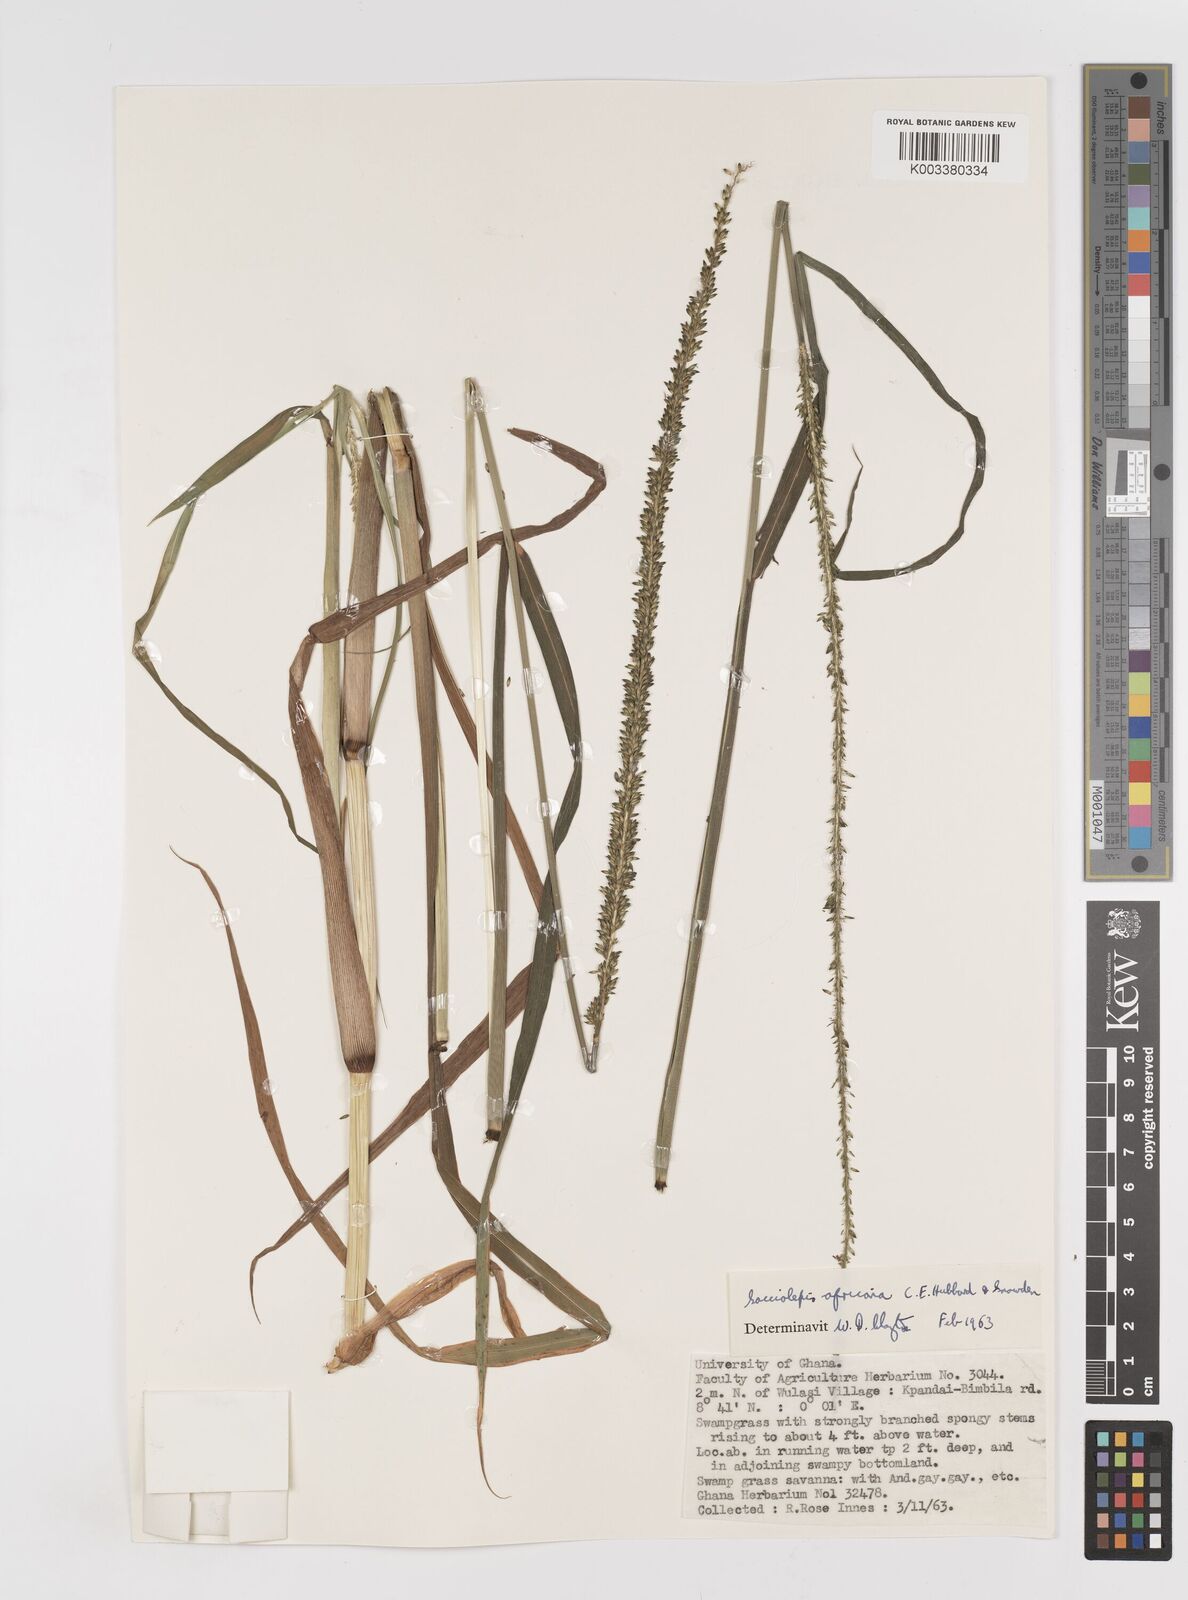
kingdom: Plantae
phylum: Tracheophyta
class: Liliopsida
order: Poales
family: Poaceae
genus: Sacciolepis
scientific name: Sacciolepis africana
